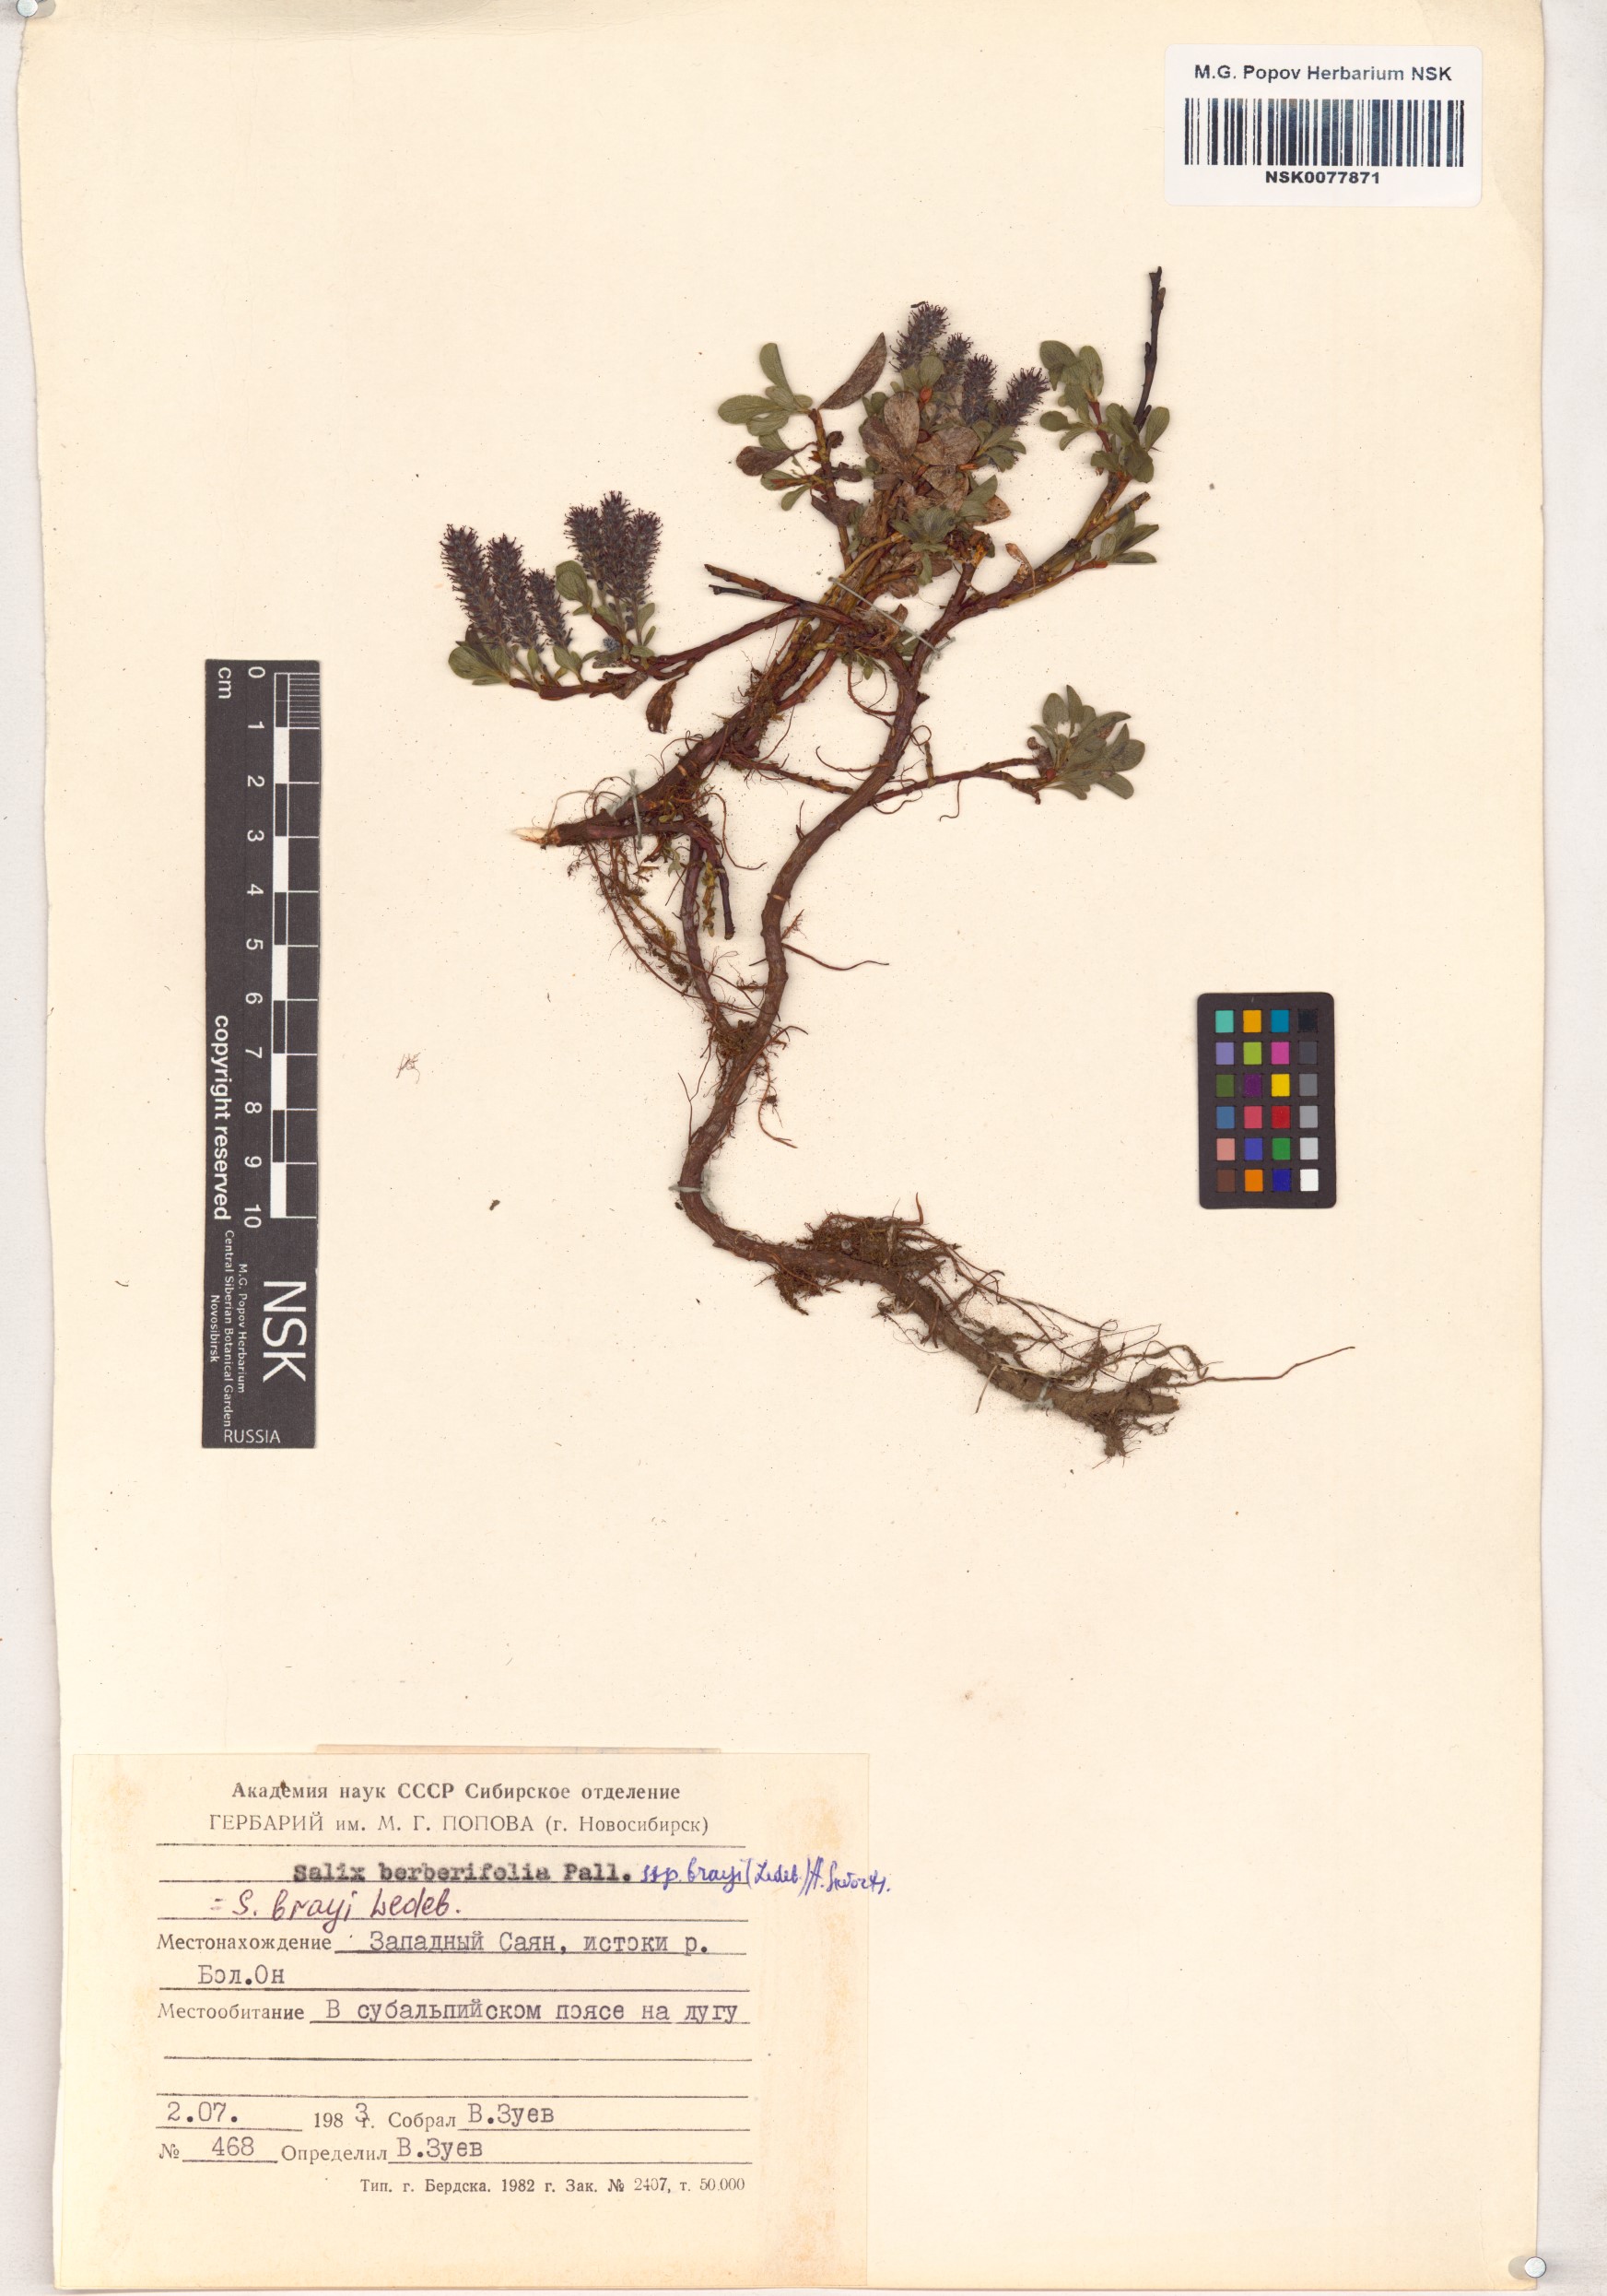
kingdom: Plantae
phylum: Tracheophyta
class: Magnoliopsida
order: Malpighiales
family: Salicaceae
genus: Salix
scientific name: Salix berberifolia
